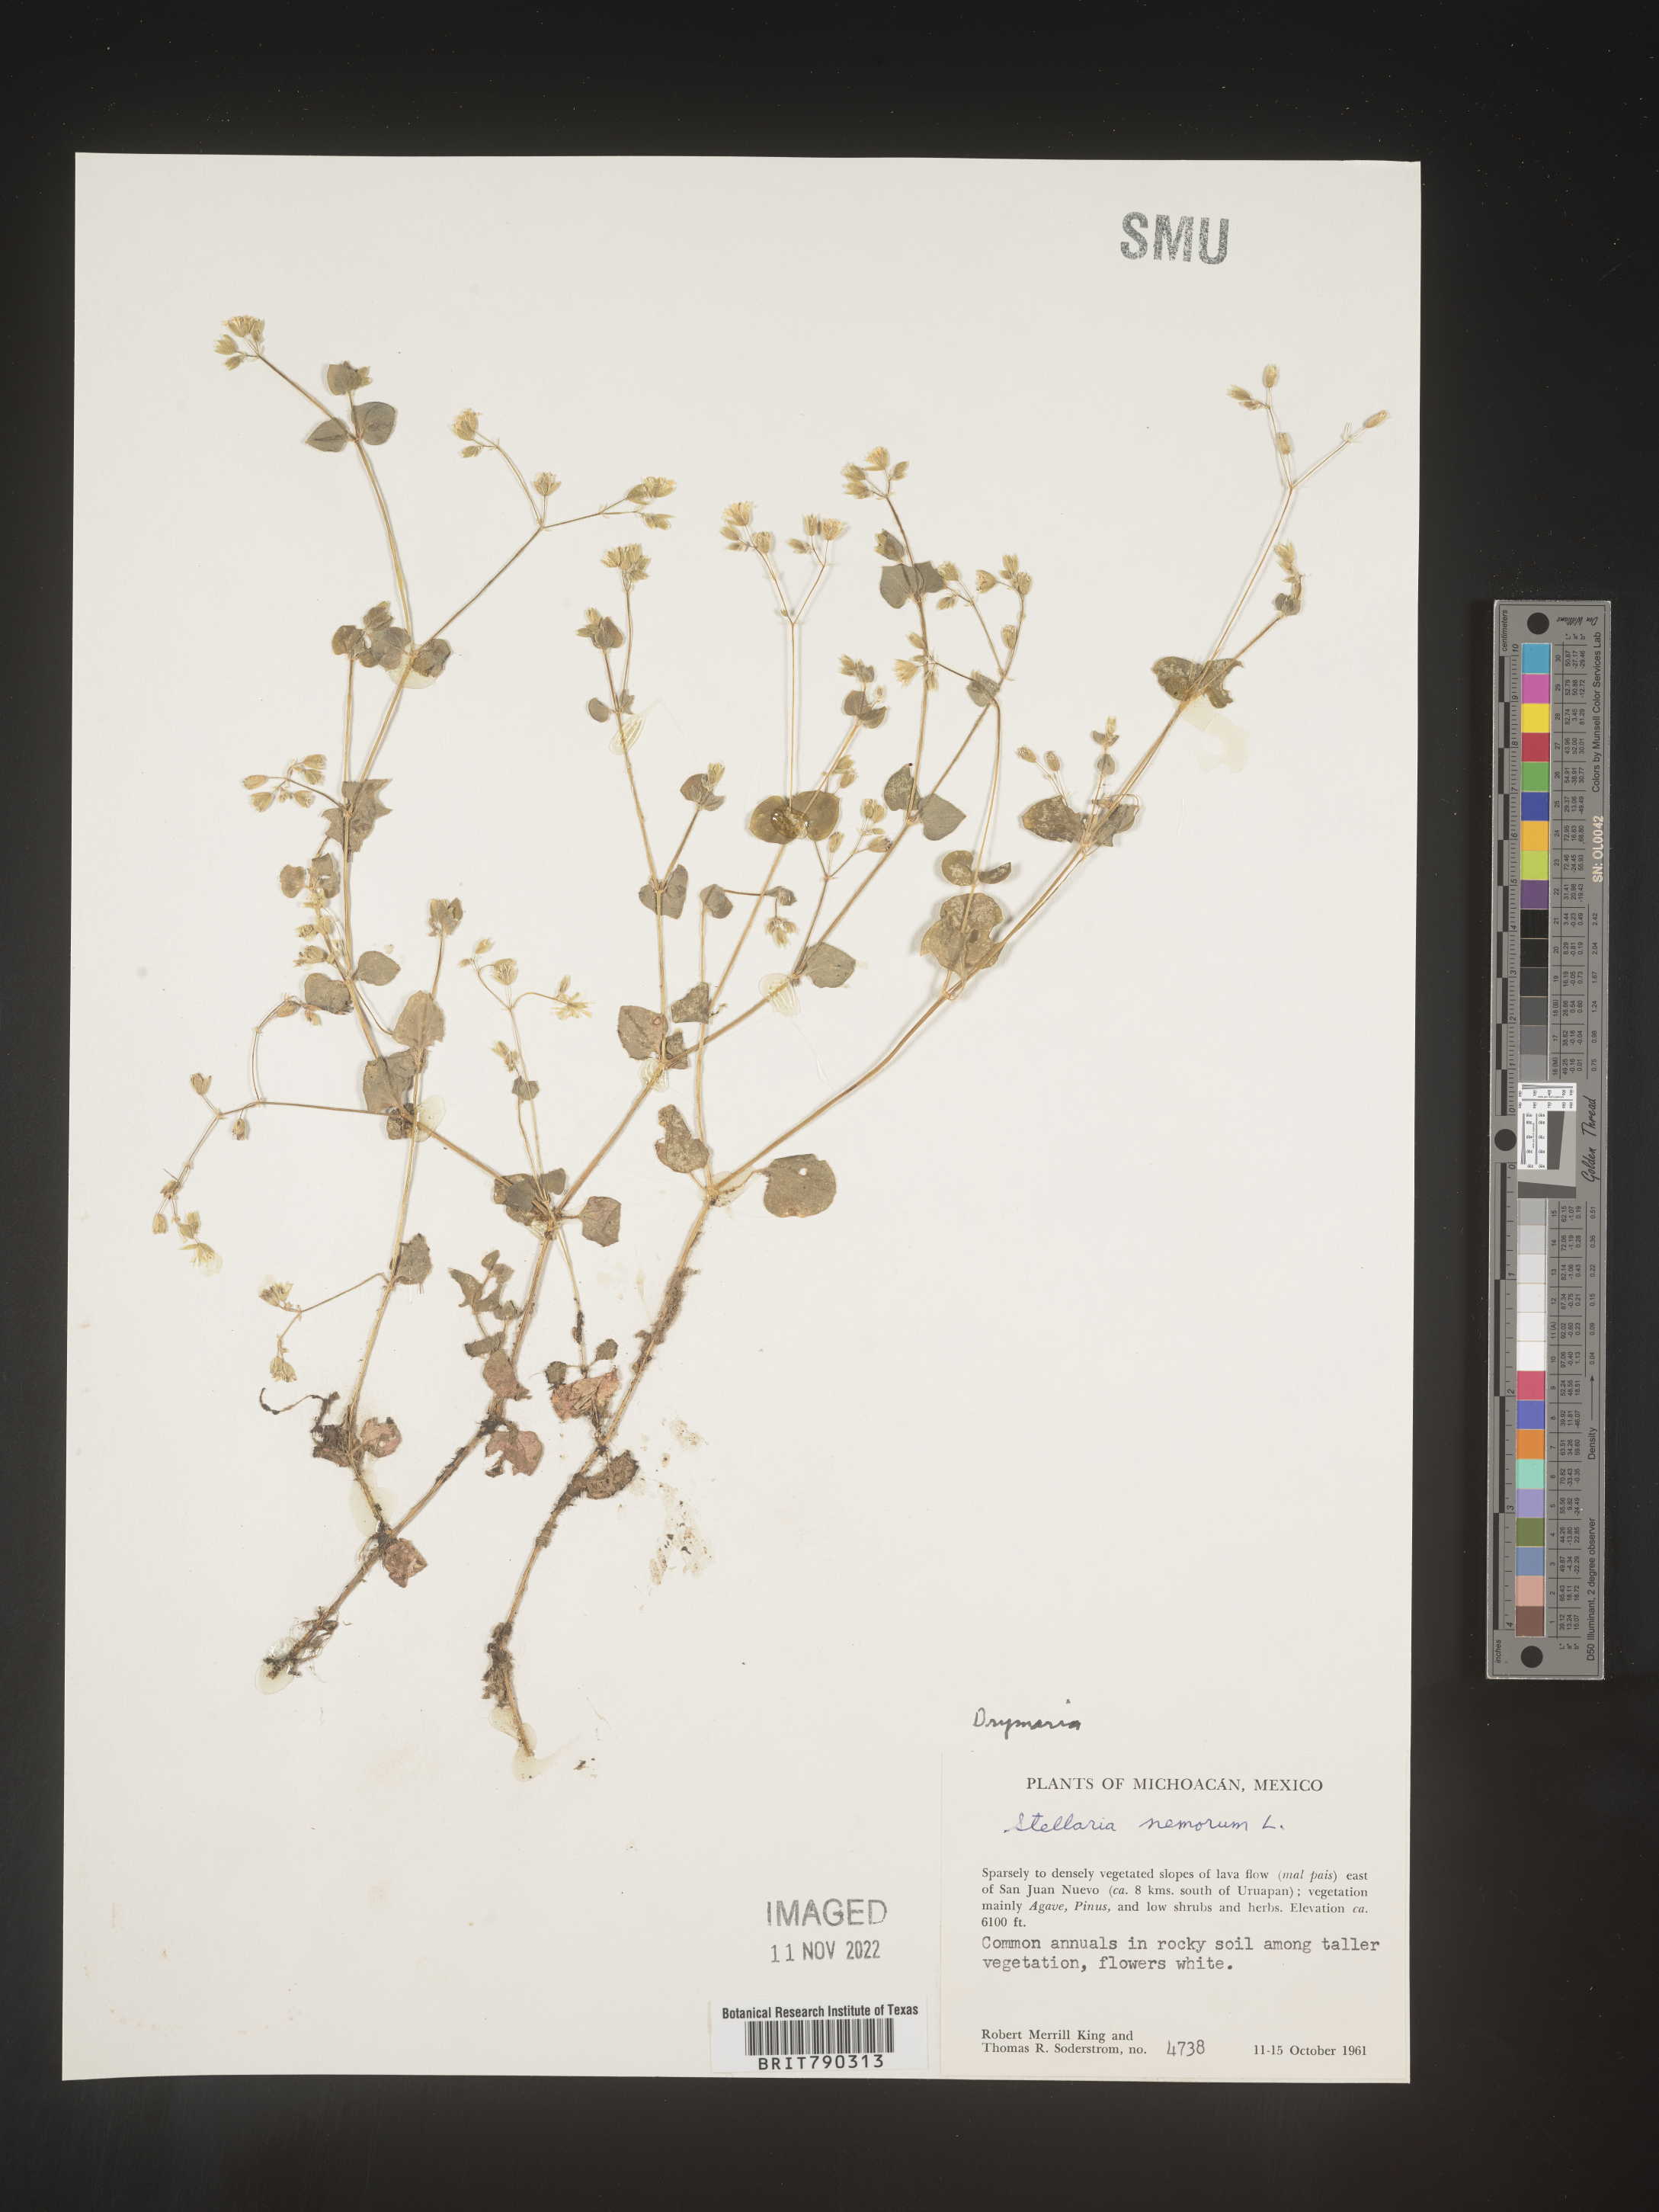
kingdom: Plantae
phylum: Tracheophyta
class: Magnoliopsida
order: Caryophyllales
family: Caryophyllaceae
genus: Drymaria
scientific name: Drymaria
